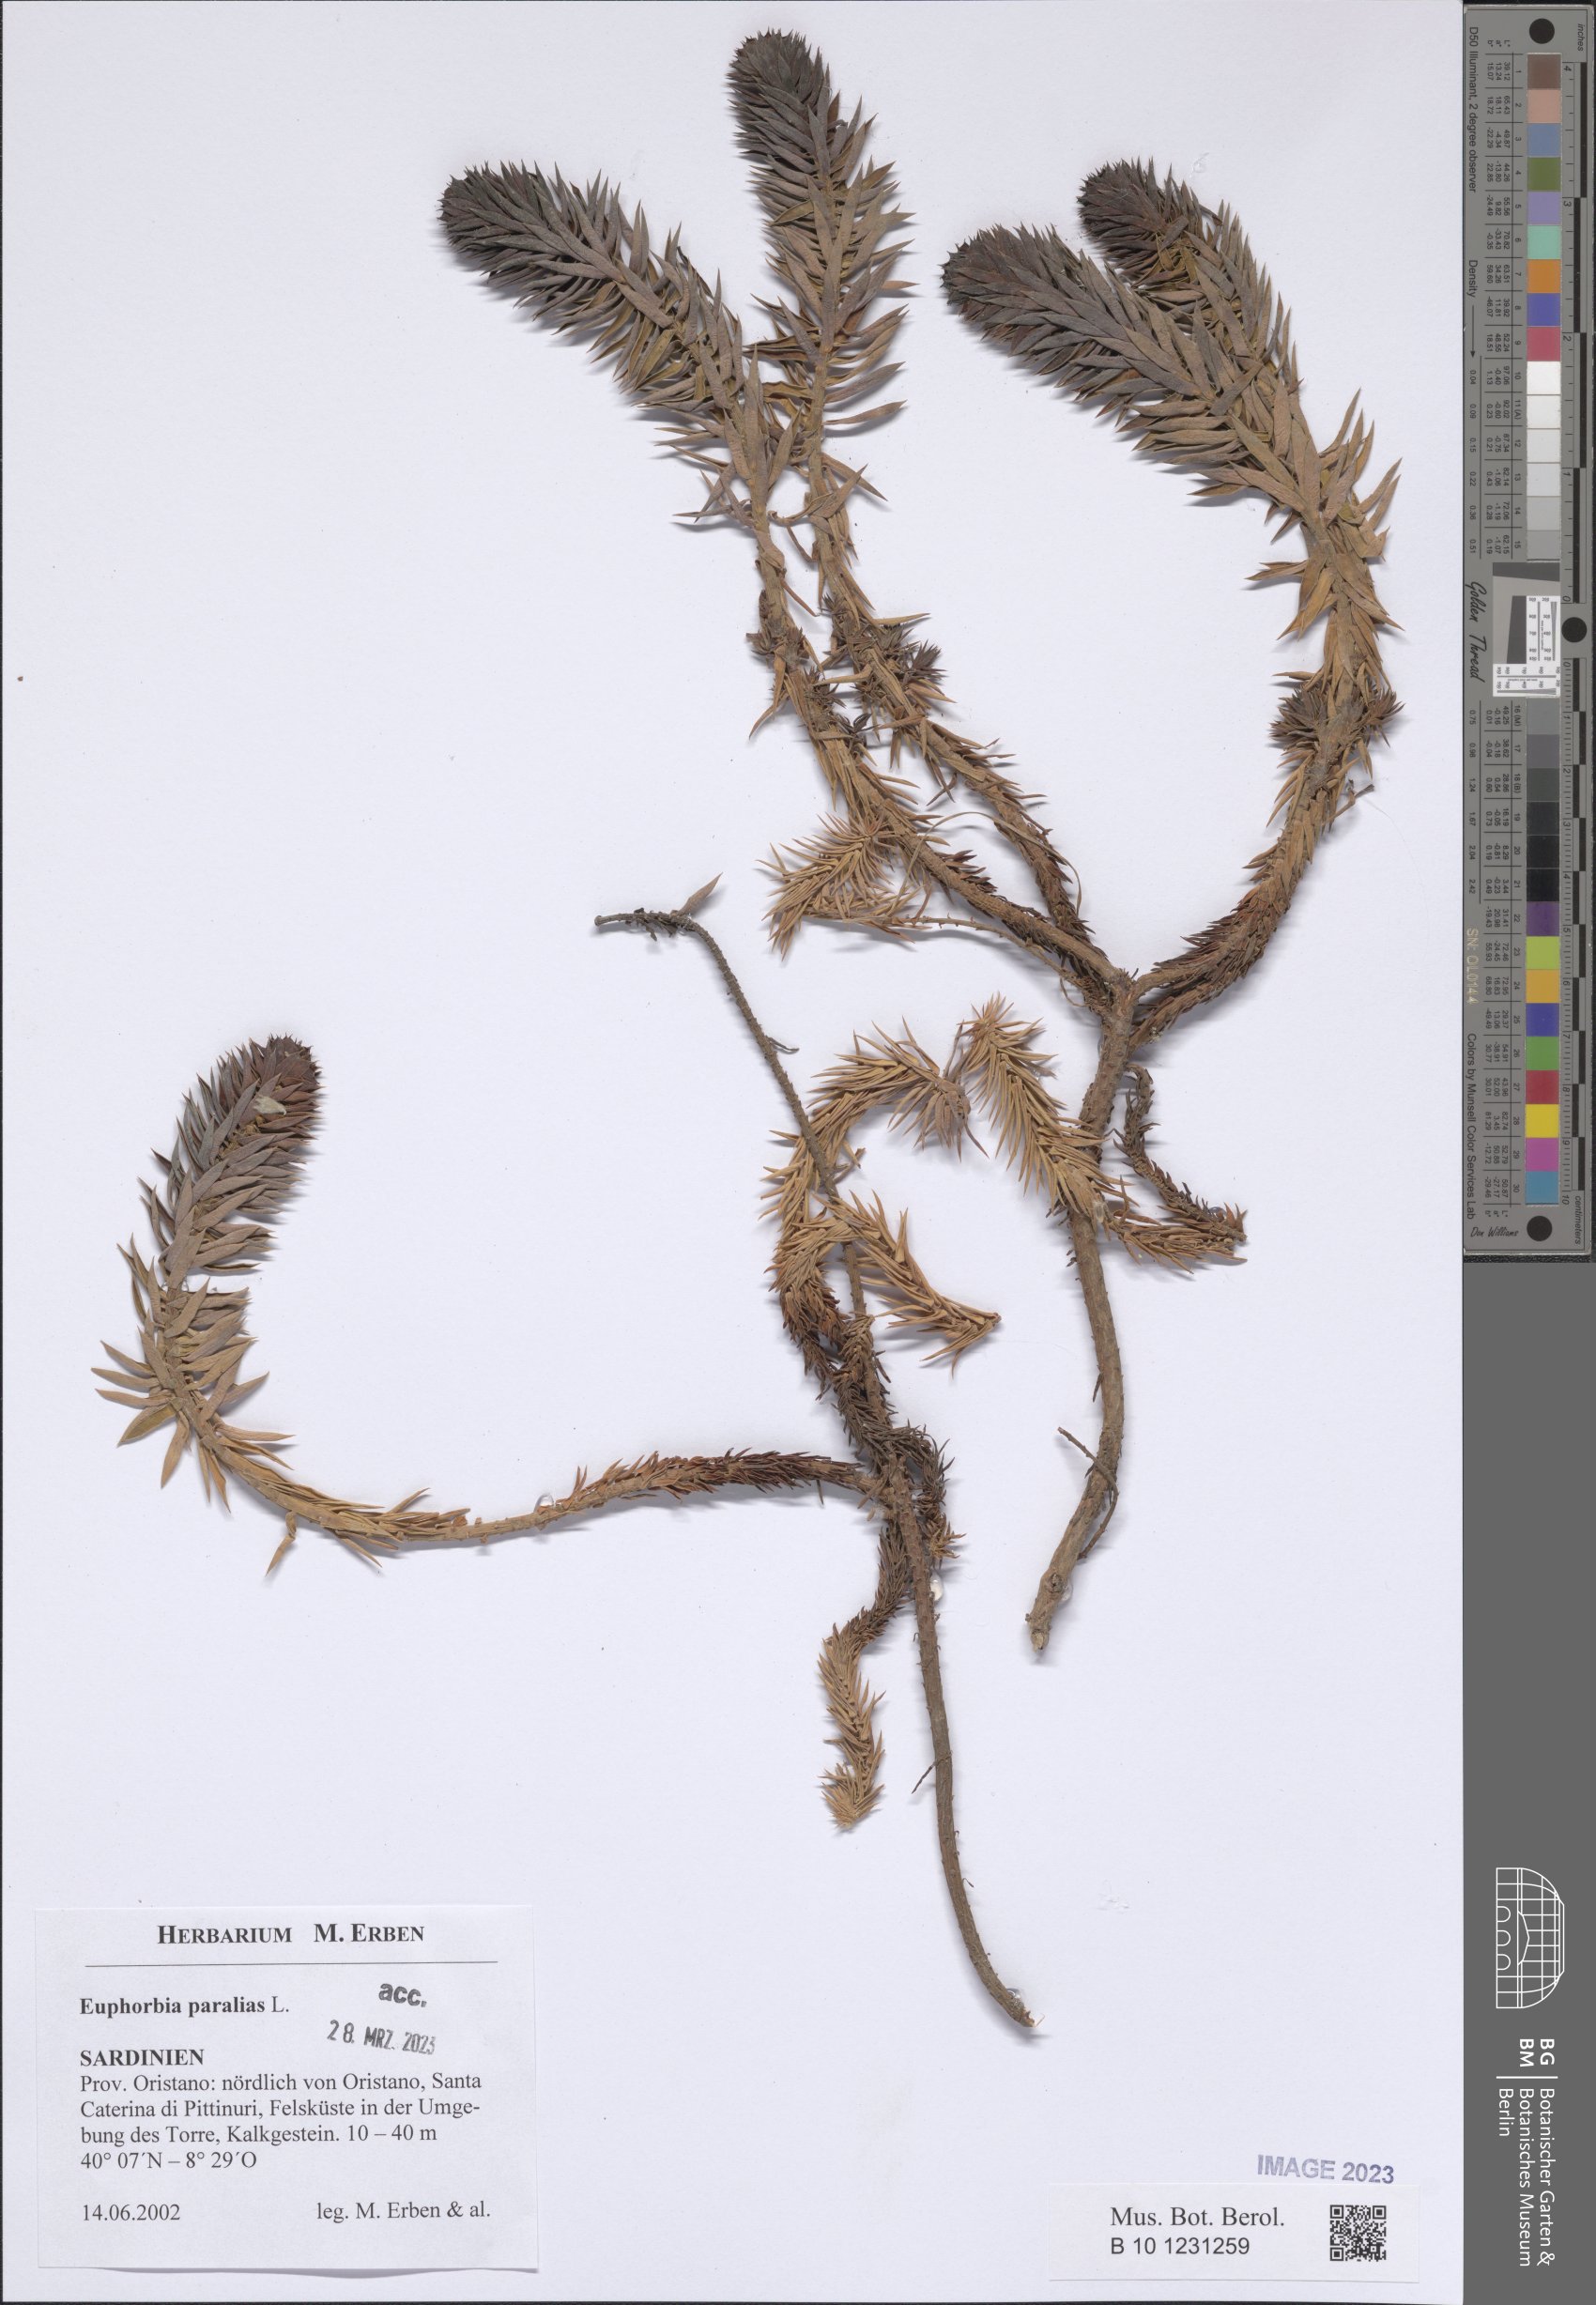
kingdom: Plantae
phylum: Tracheophyta
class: Magnoliopsida
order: Malpighiales
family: Euphorbiaceae
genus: Euphorbia
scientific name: Euphorbia paralias
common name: Sea spurge
